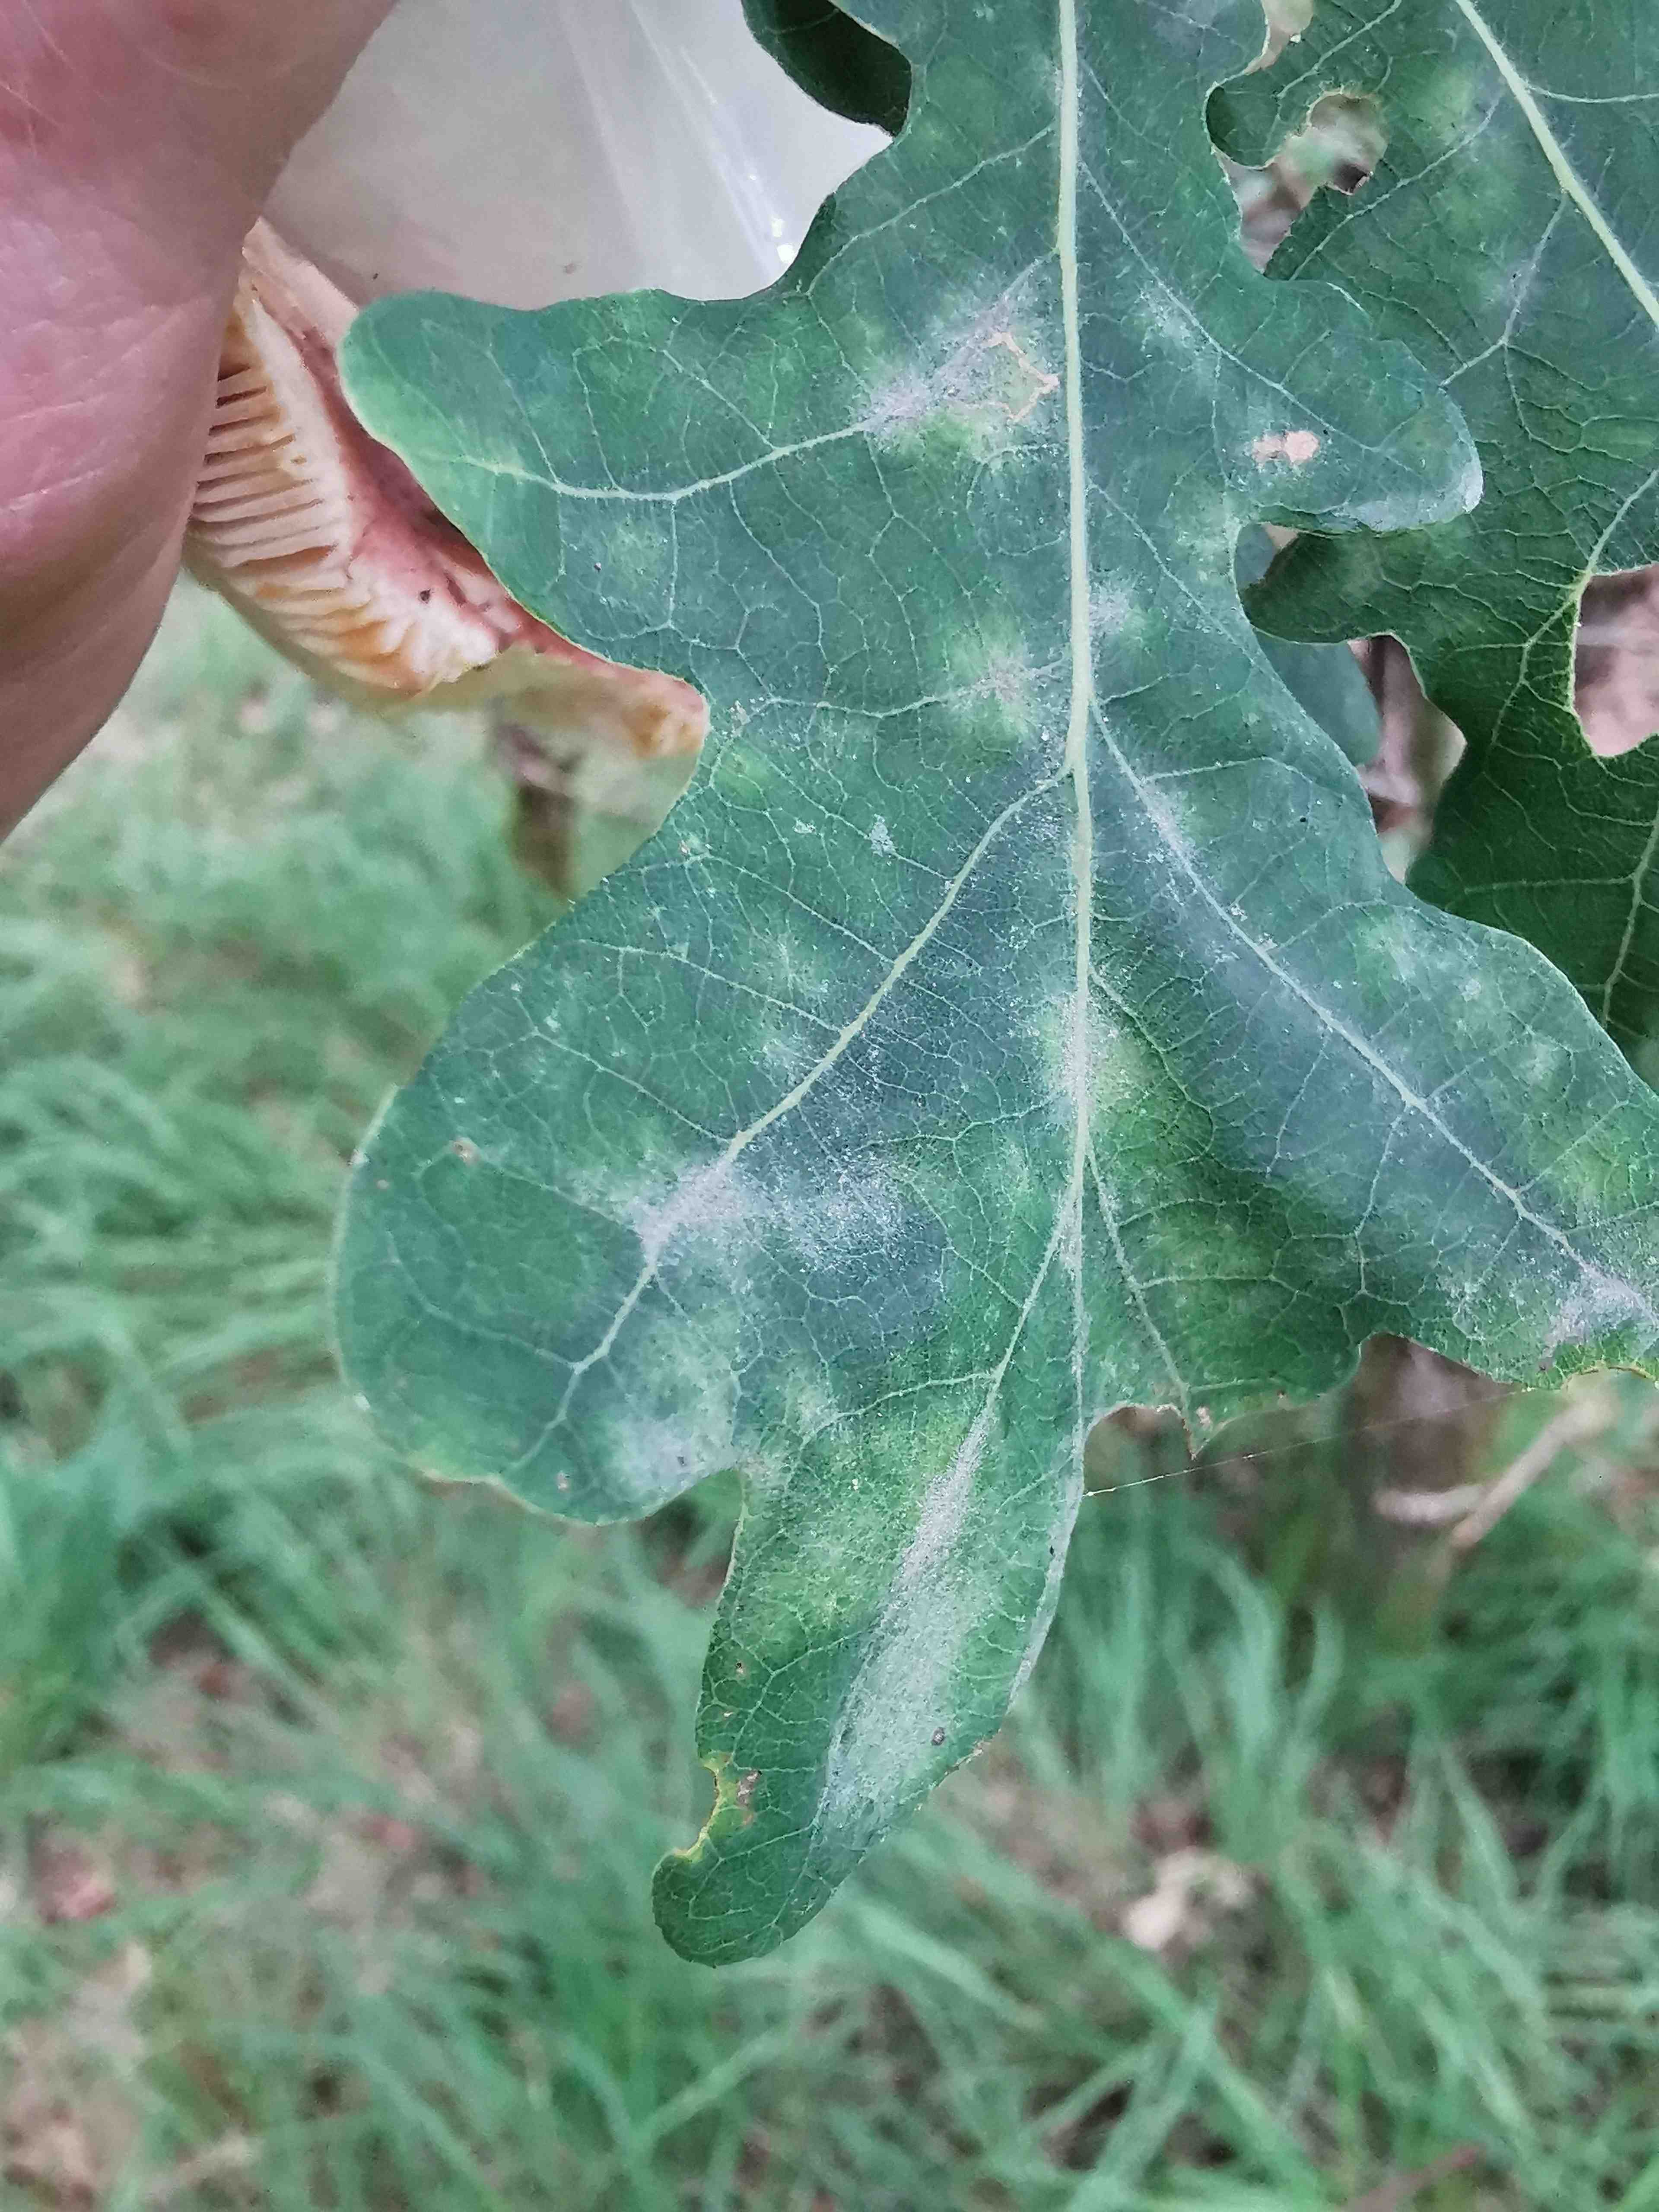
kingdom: Fungi
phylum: Ascomycota
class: Leotiomycetes
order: Helotiales
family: Erysiphaceae
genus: Erysiphe
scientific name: Erysiphe alphitoides
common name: ege-meldug
